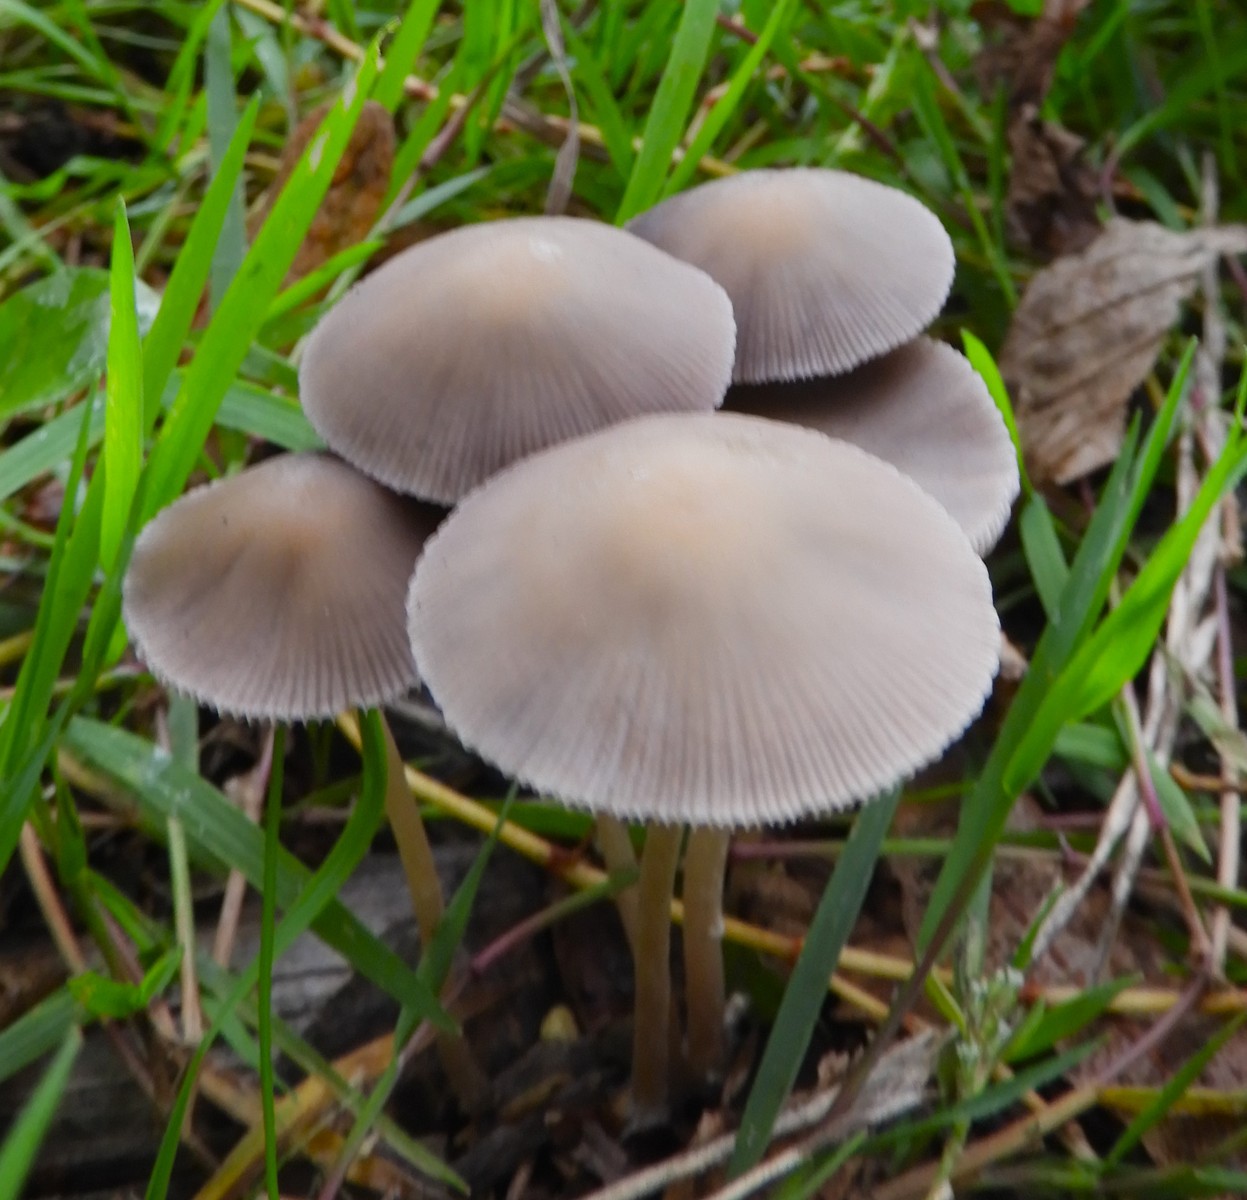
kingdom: Fungi
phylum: Basidiomycota
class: Agaricomycetes
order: Agaricales
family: Psathyrellaceae
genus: Psathyrella
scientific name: Psathyrella
